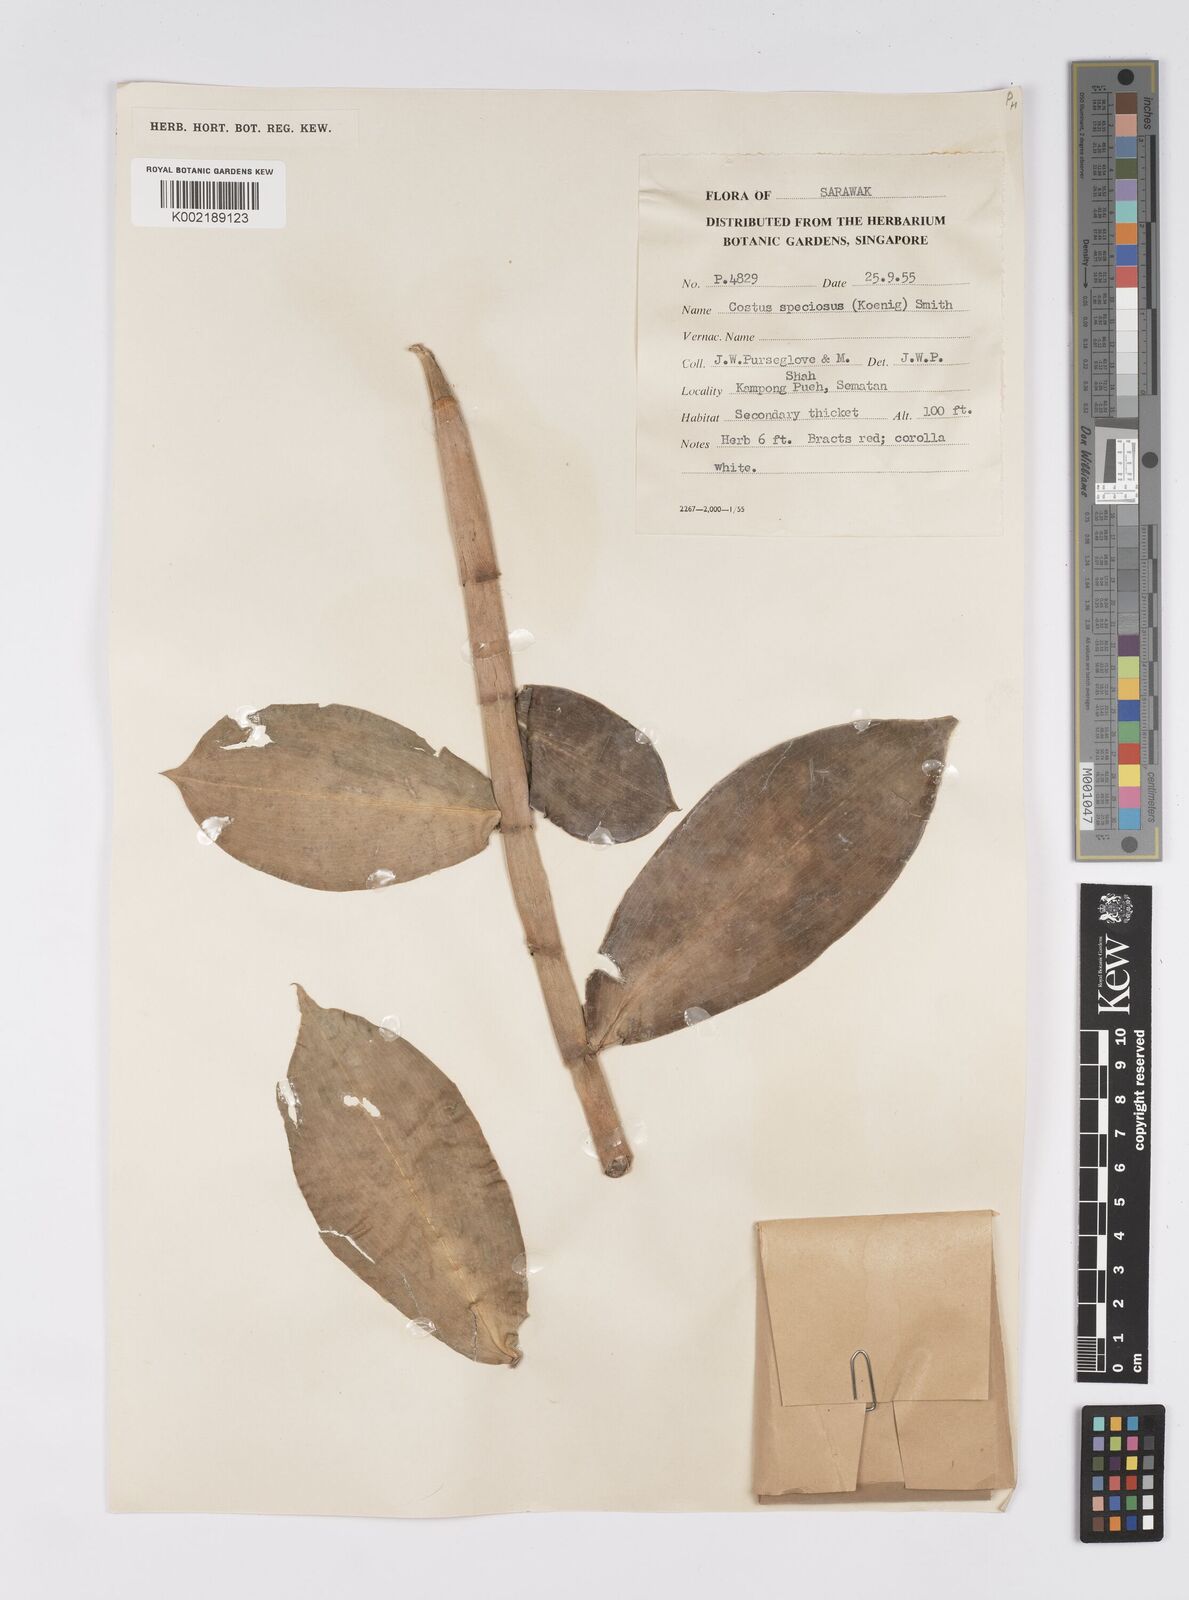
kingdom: Plantae
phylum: Tracheophyta
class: Liliopsida
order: Zingiberales
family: Costaceae
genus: Hellenia
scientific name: Hellenia speciosa
